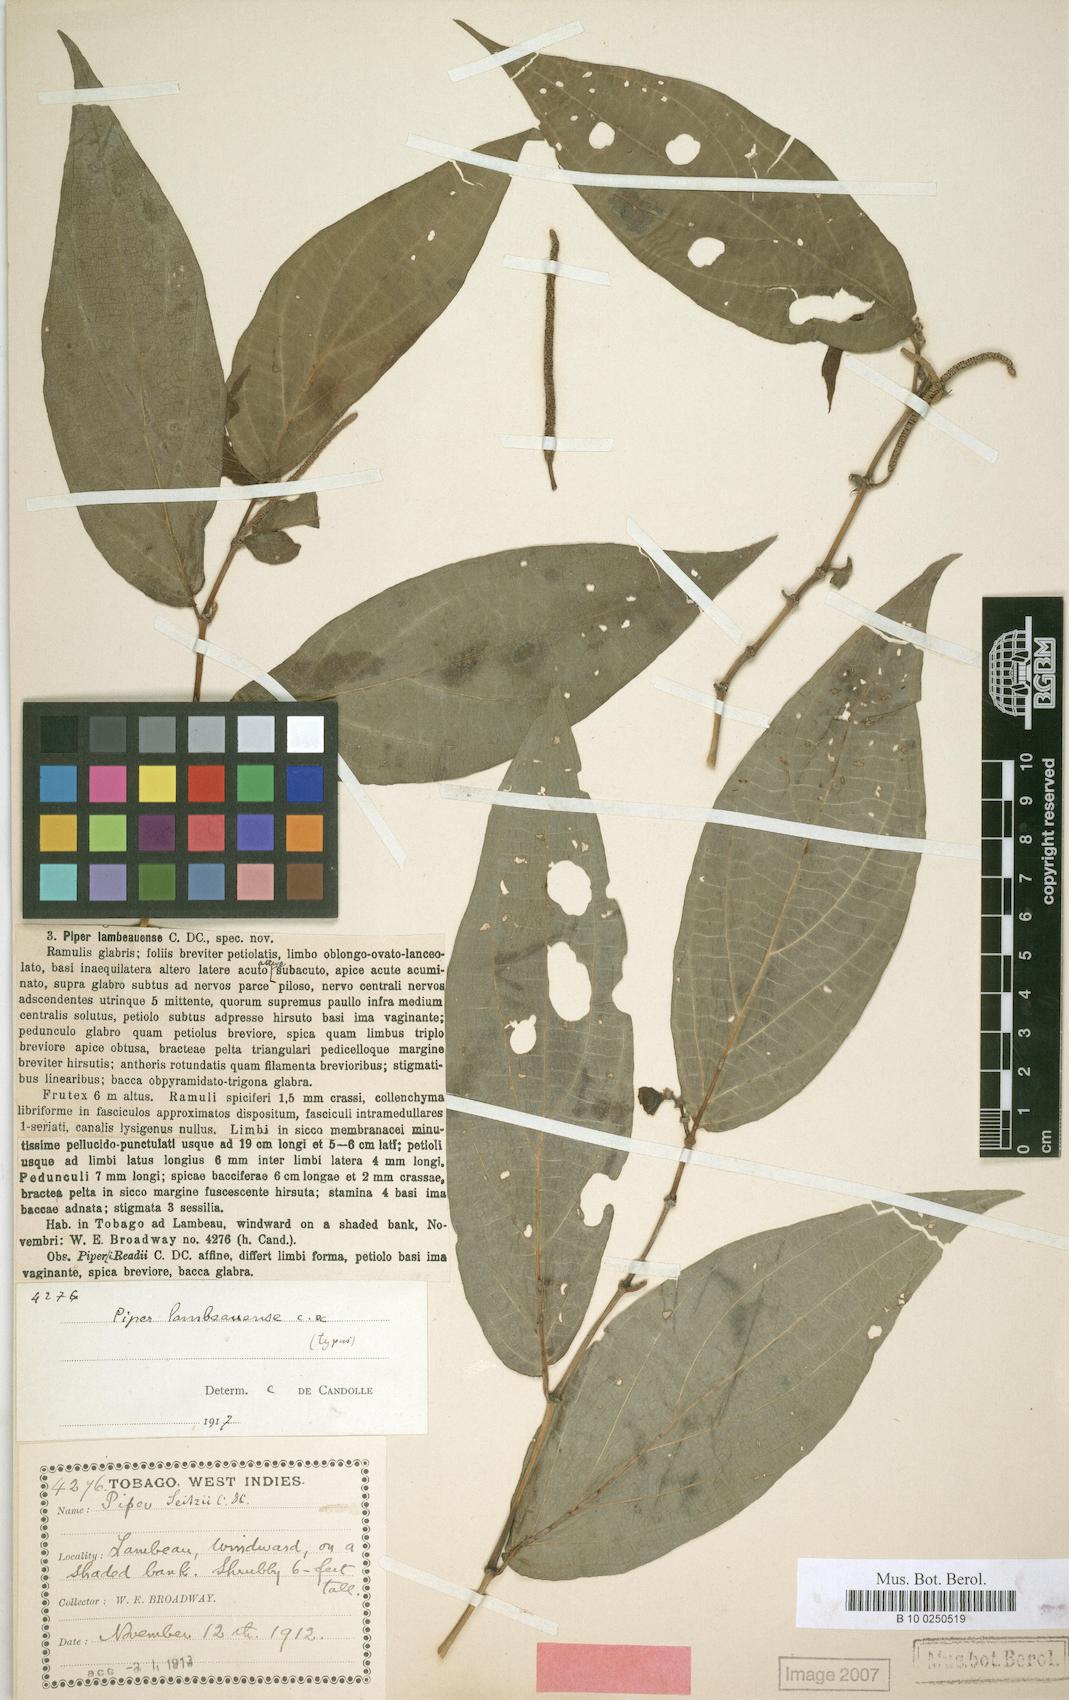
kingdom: Plantae
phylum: Tracheophyta
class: Magnoliopsida
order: Piperales
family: Piperaceae
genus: Piper
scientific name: Piper dilatatum
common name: Higuillo
